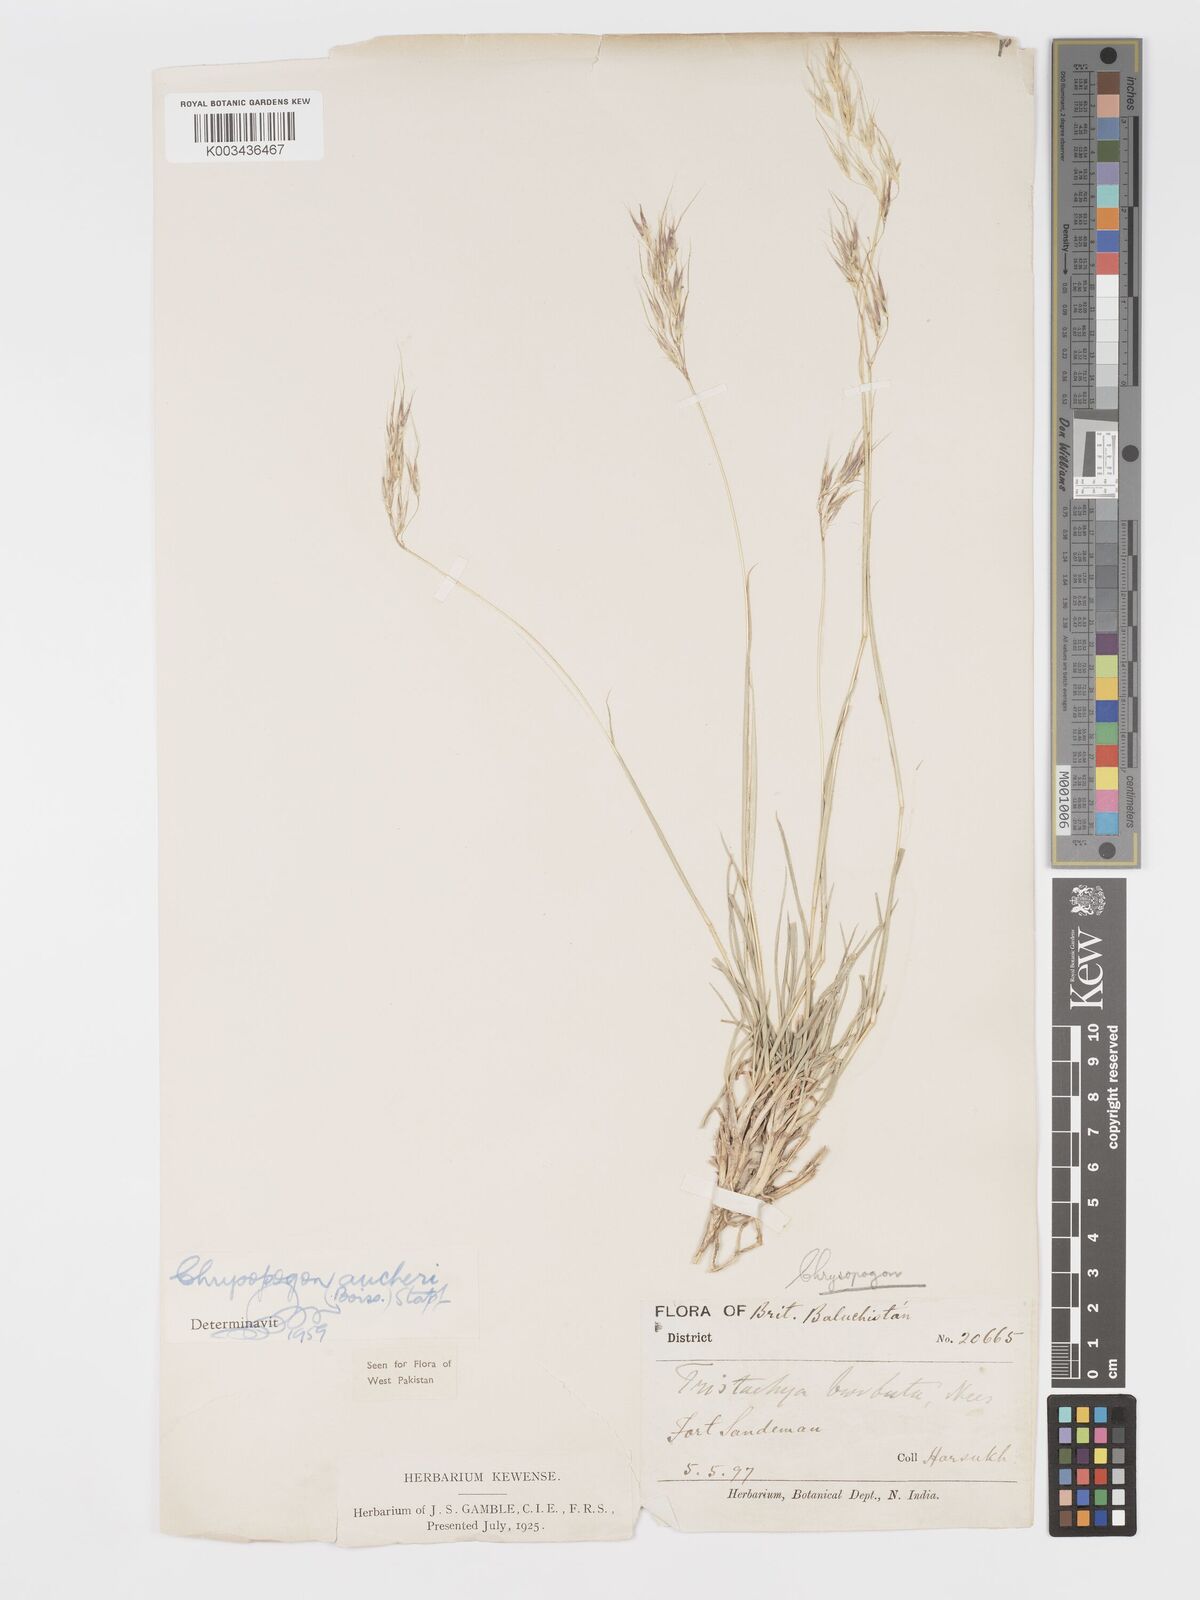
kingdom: Plantae
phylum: Tracheophyta
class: Liliopsida
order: Poales
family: Poaceae
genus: Chrysopogon
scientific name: Chrysopogon aucheri
